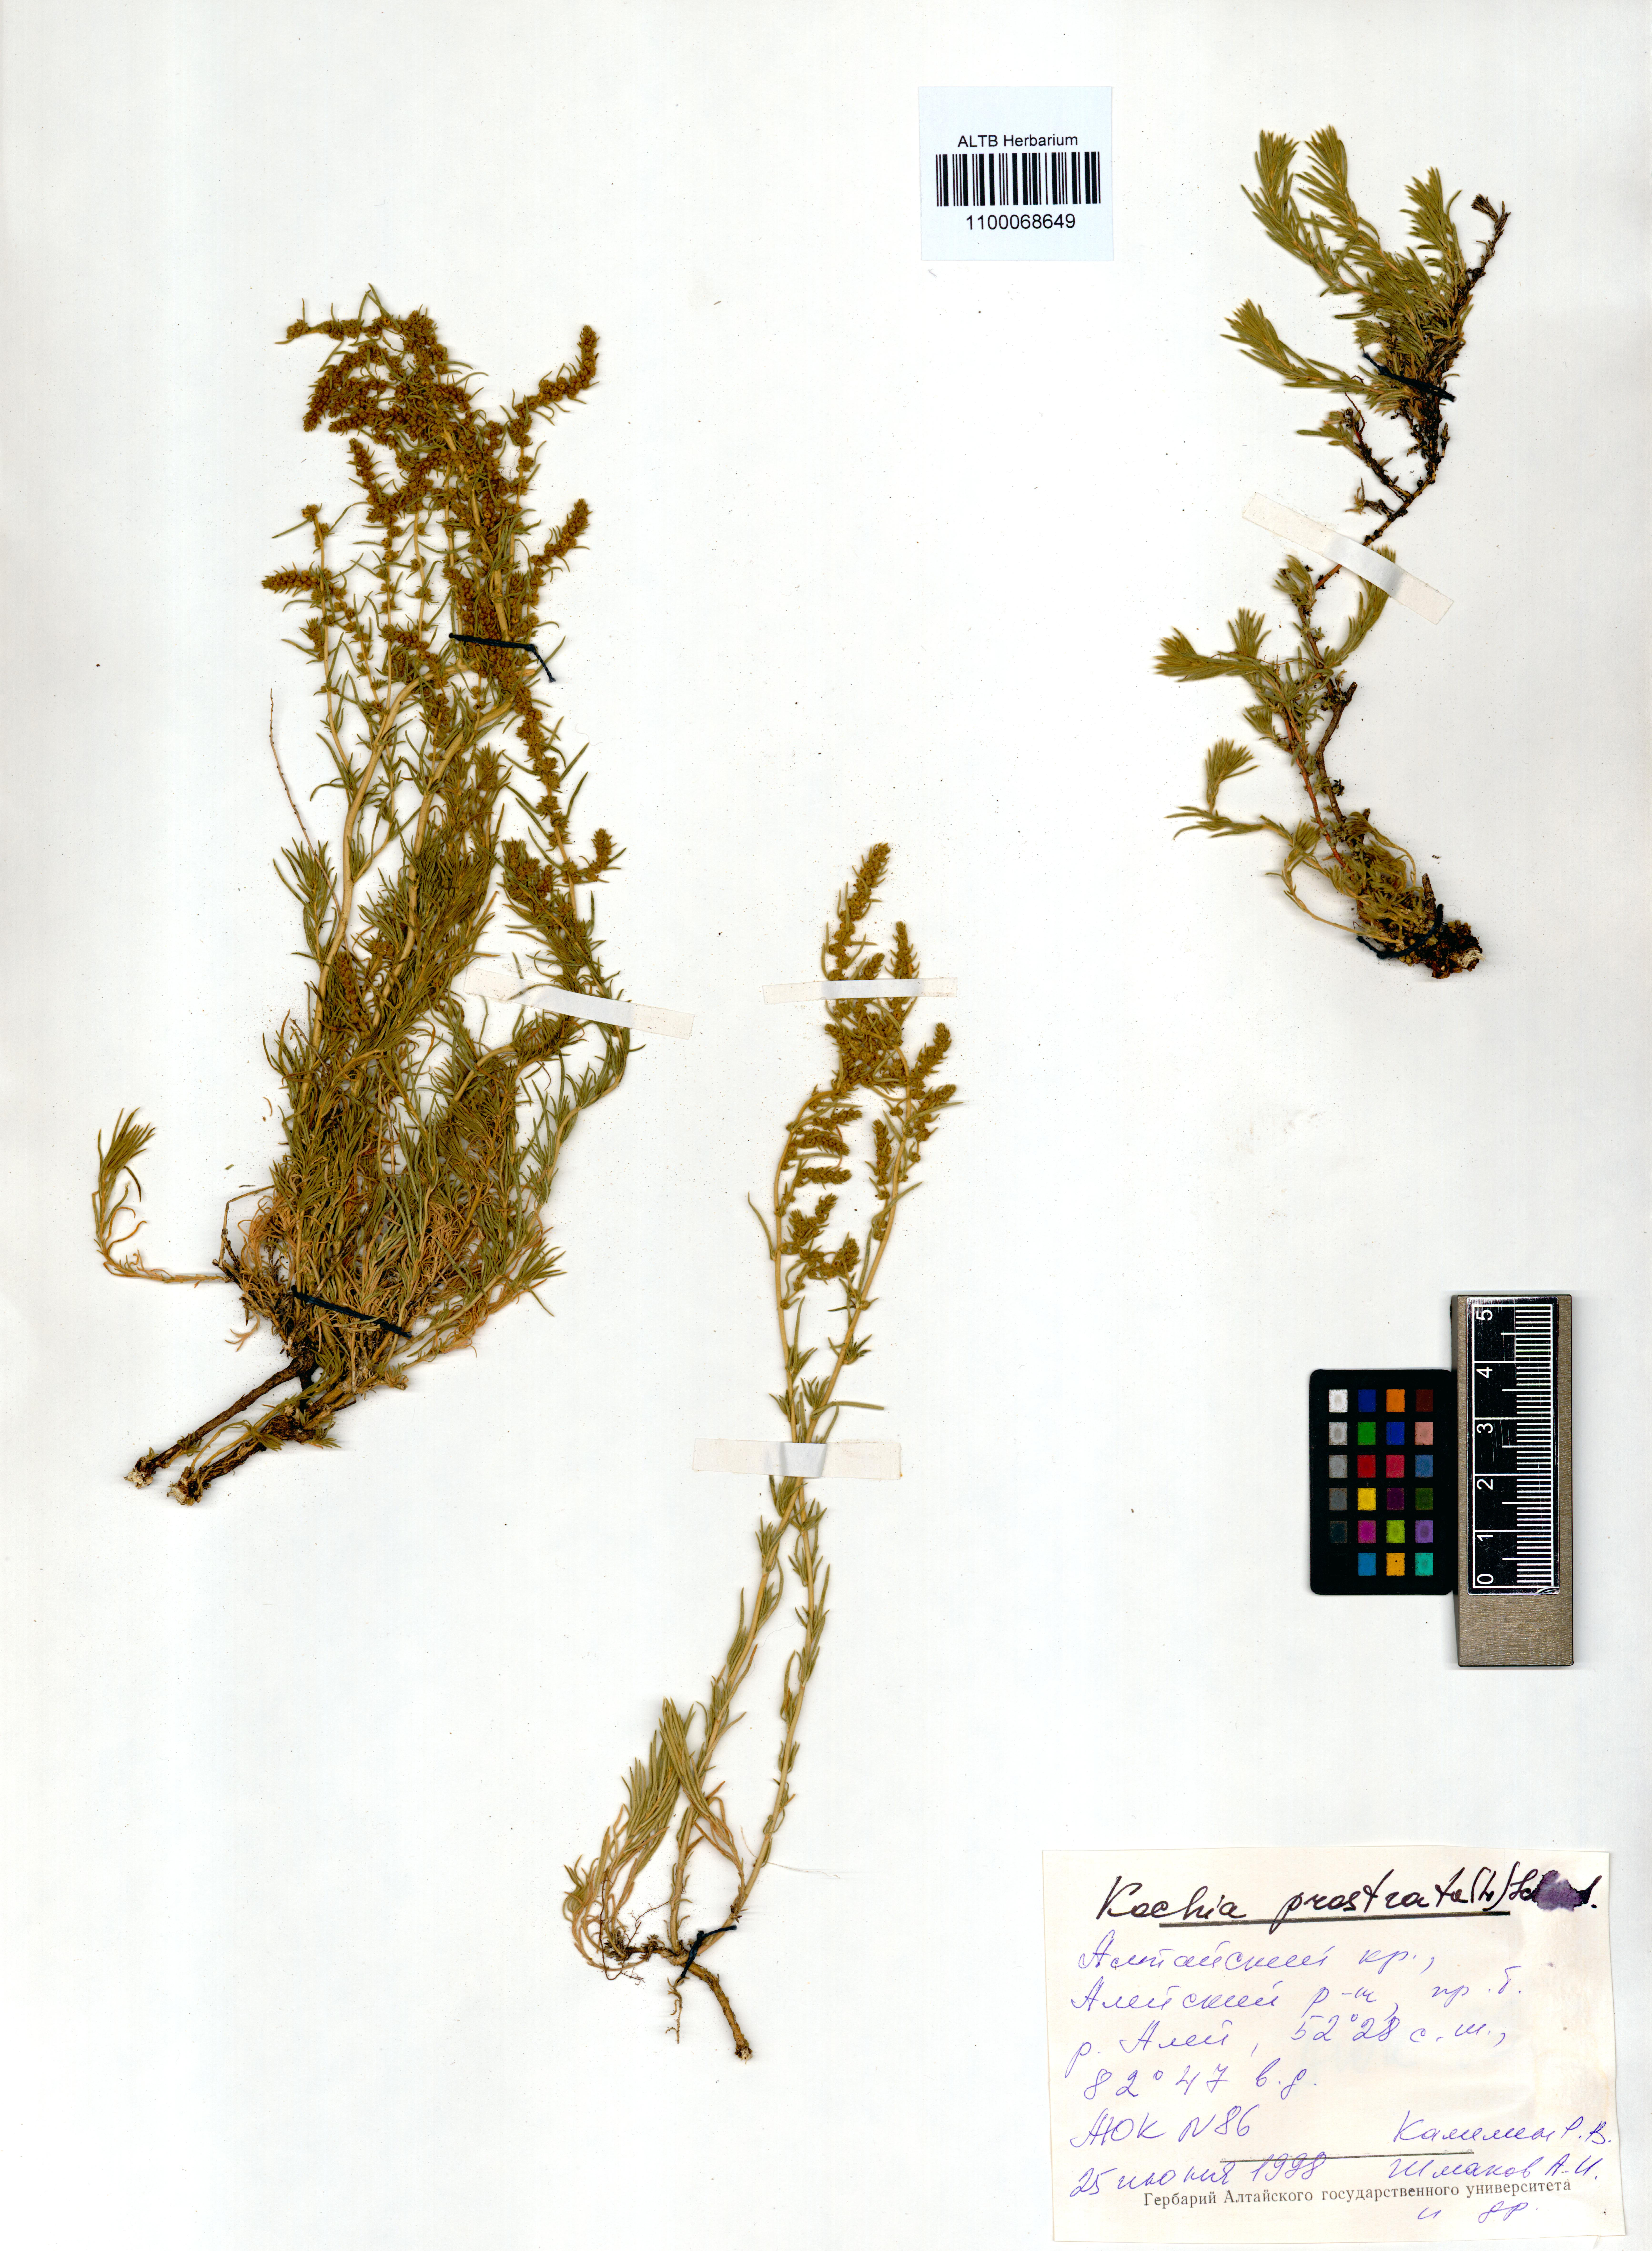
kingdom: Plantae
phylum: Tracheophyta
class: Magnoliopsida
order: Caryophyllales
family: Amaranthaceae
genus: Bassia
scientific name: Bassia prostrata
